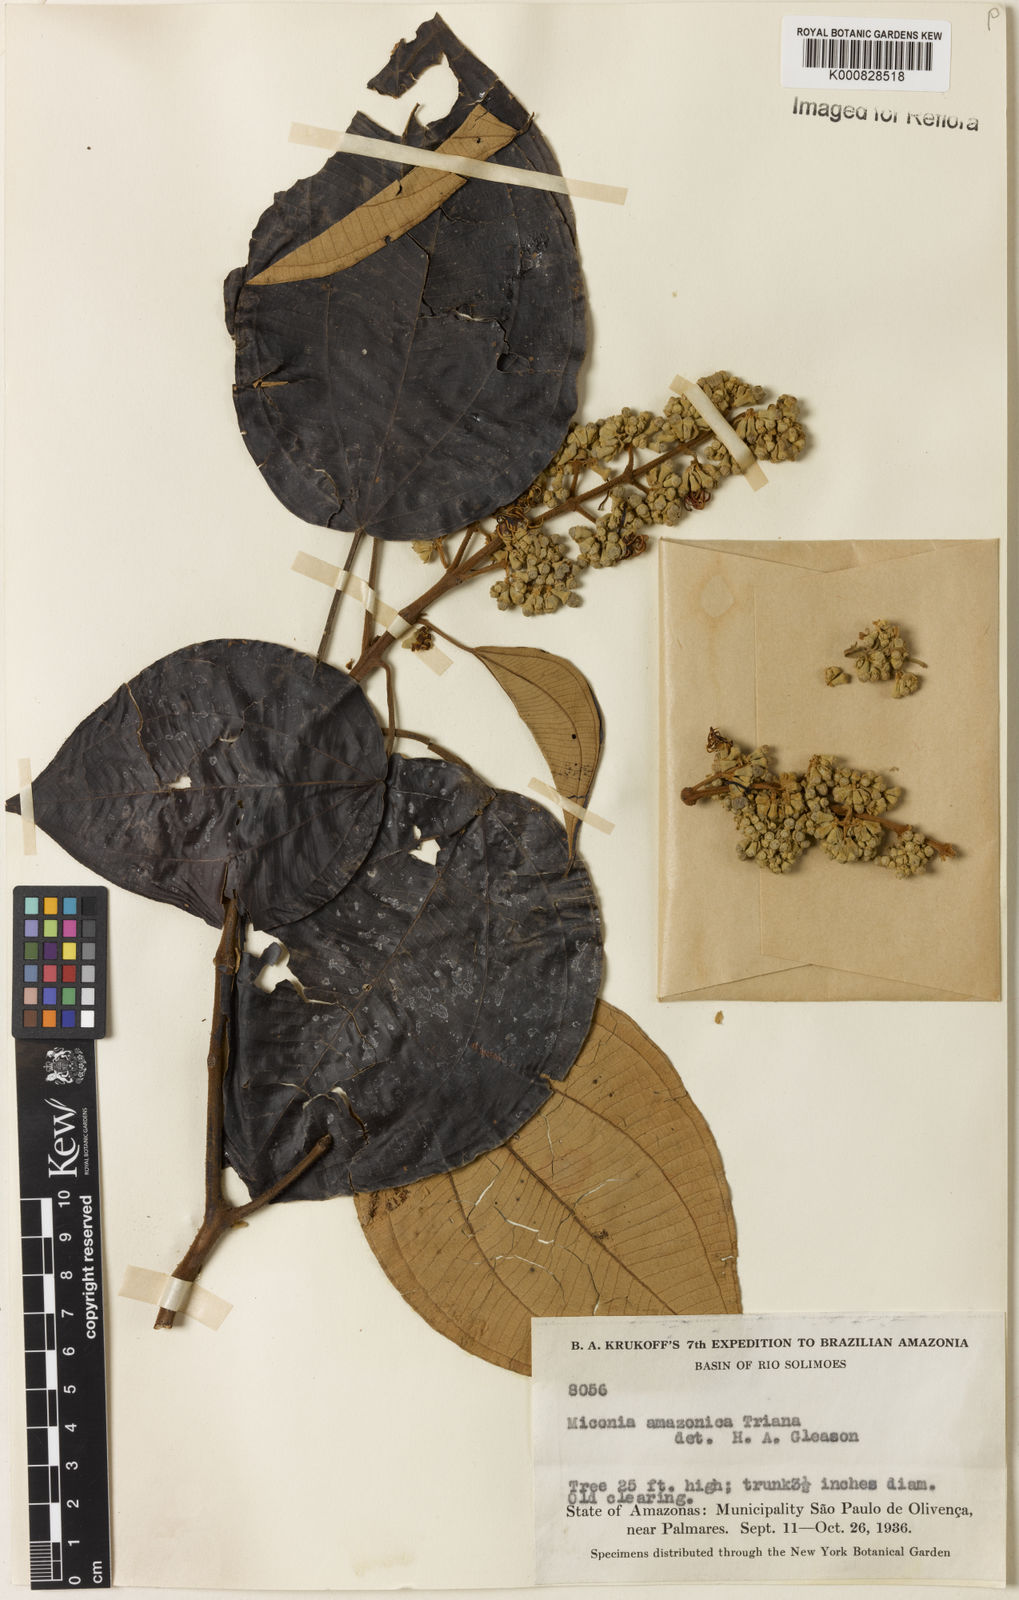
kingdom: Plantae
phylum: Tracheophyta
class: Magnoliopsida
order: Myrtales
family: Melastomataceae
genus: Miconia
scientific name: Miconia amazonica
